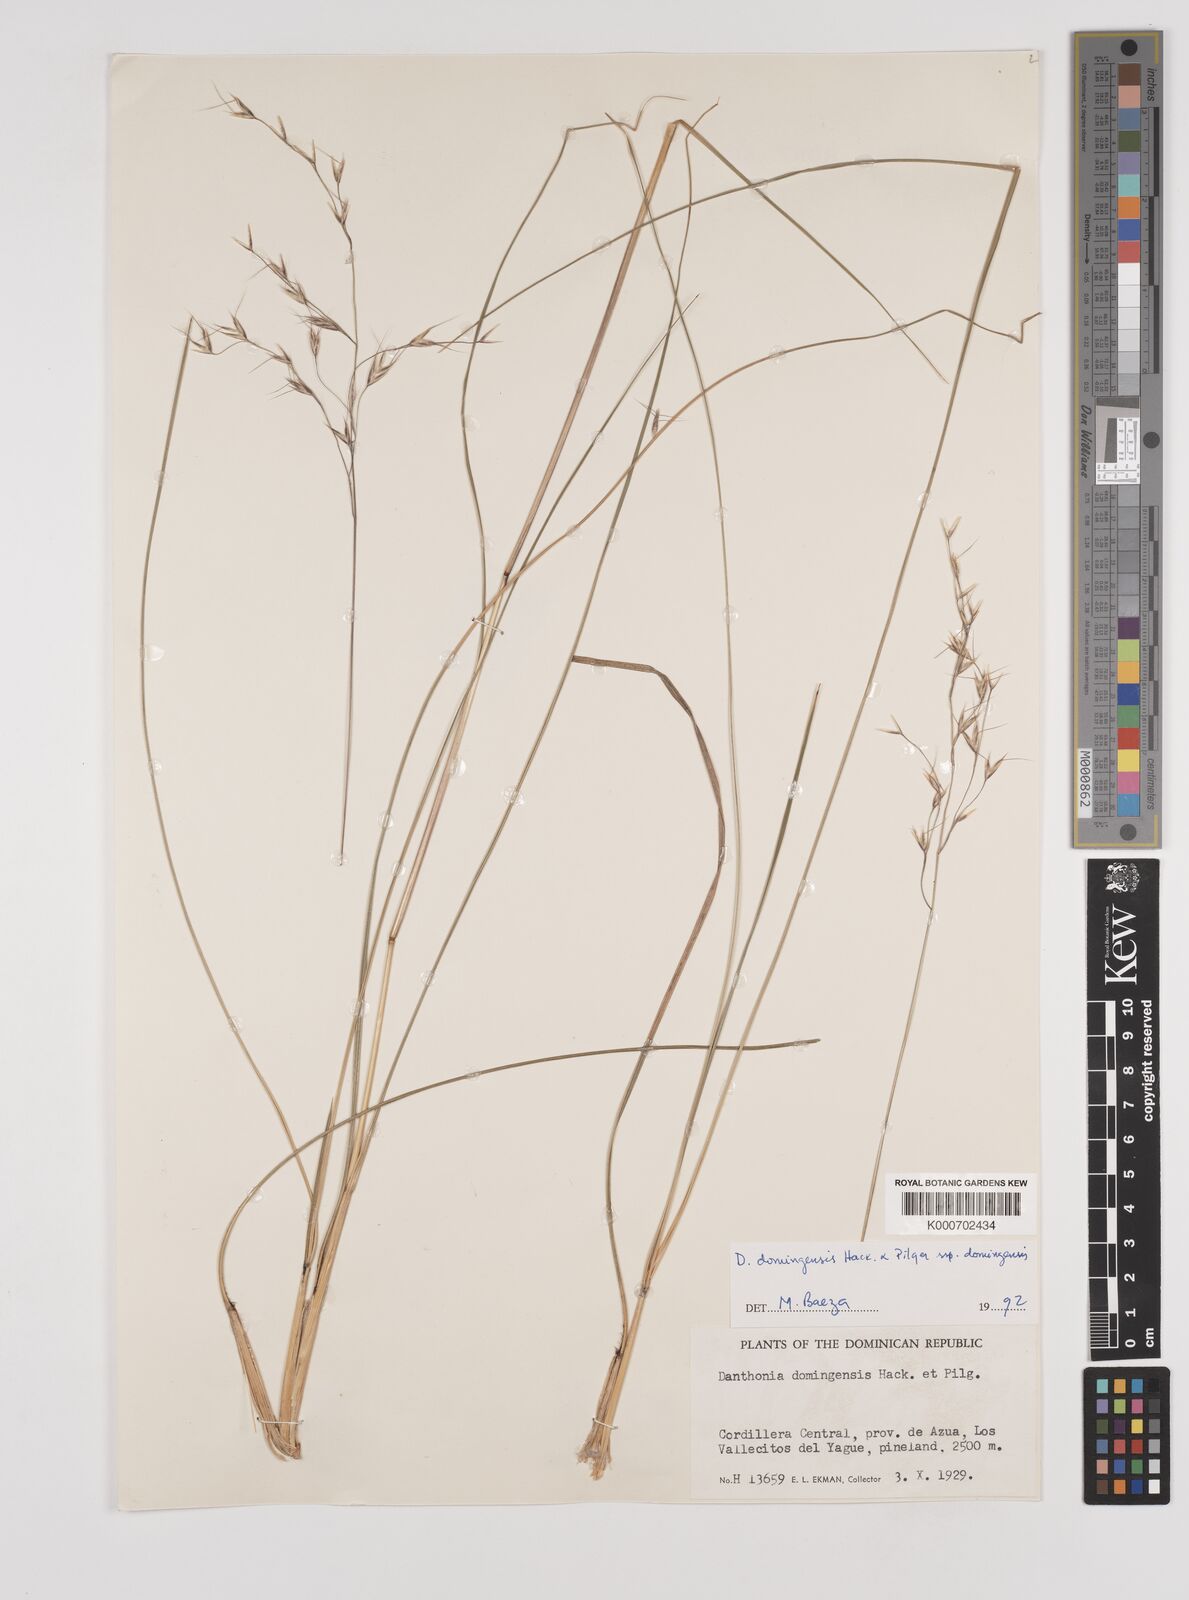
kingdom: Plantae
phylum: Tracheophyta
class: Liliopsida
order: Poales
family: Poaceae
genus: Danthonia
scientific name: Danthonia domingensis
